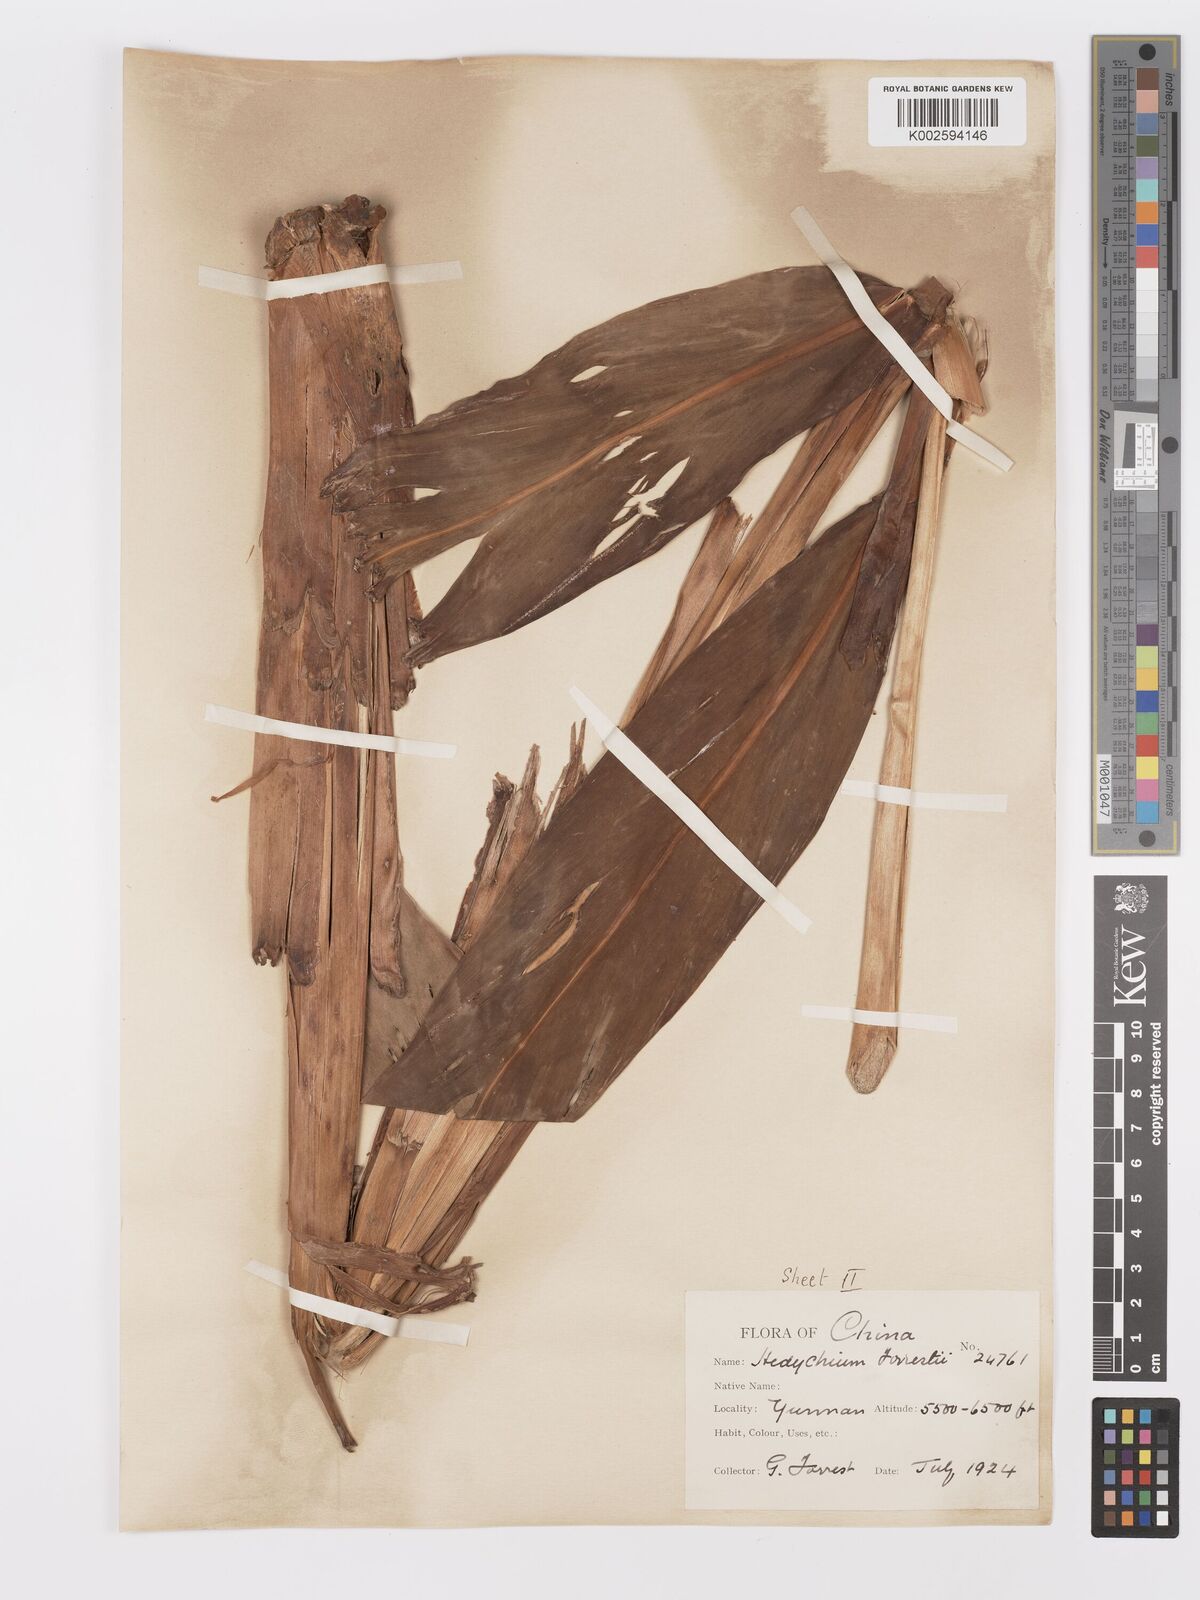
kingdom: Plantae
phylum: Tracheophyta
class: Liliopsida
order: Zingiberales
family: Zingiberaceae
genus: Hedychium
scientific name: Hedychium forrestii
